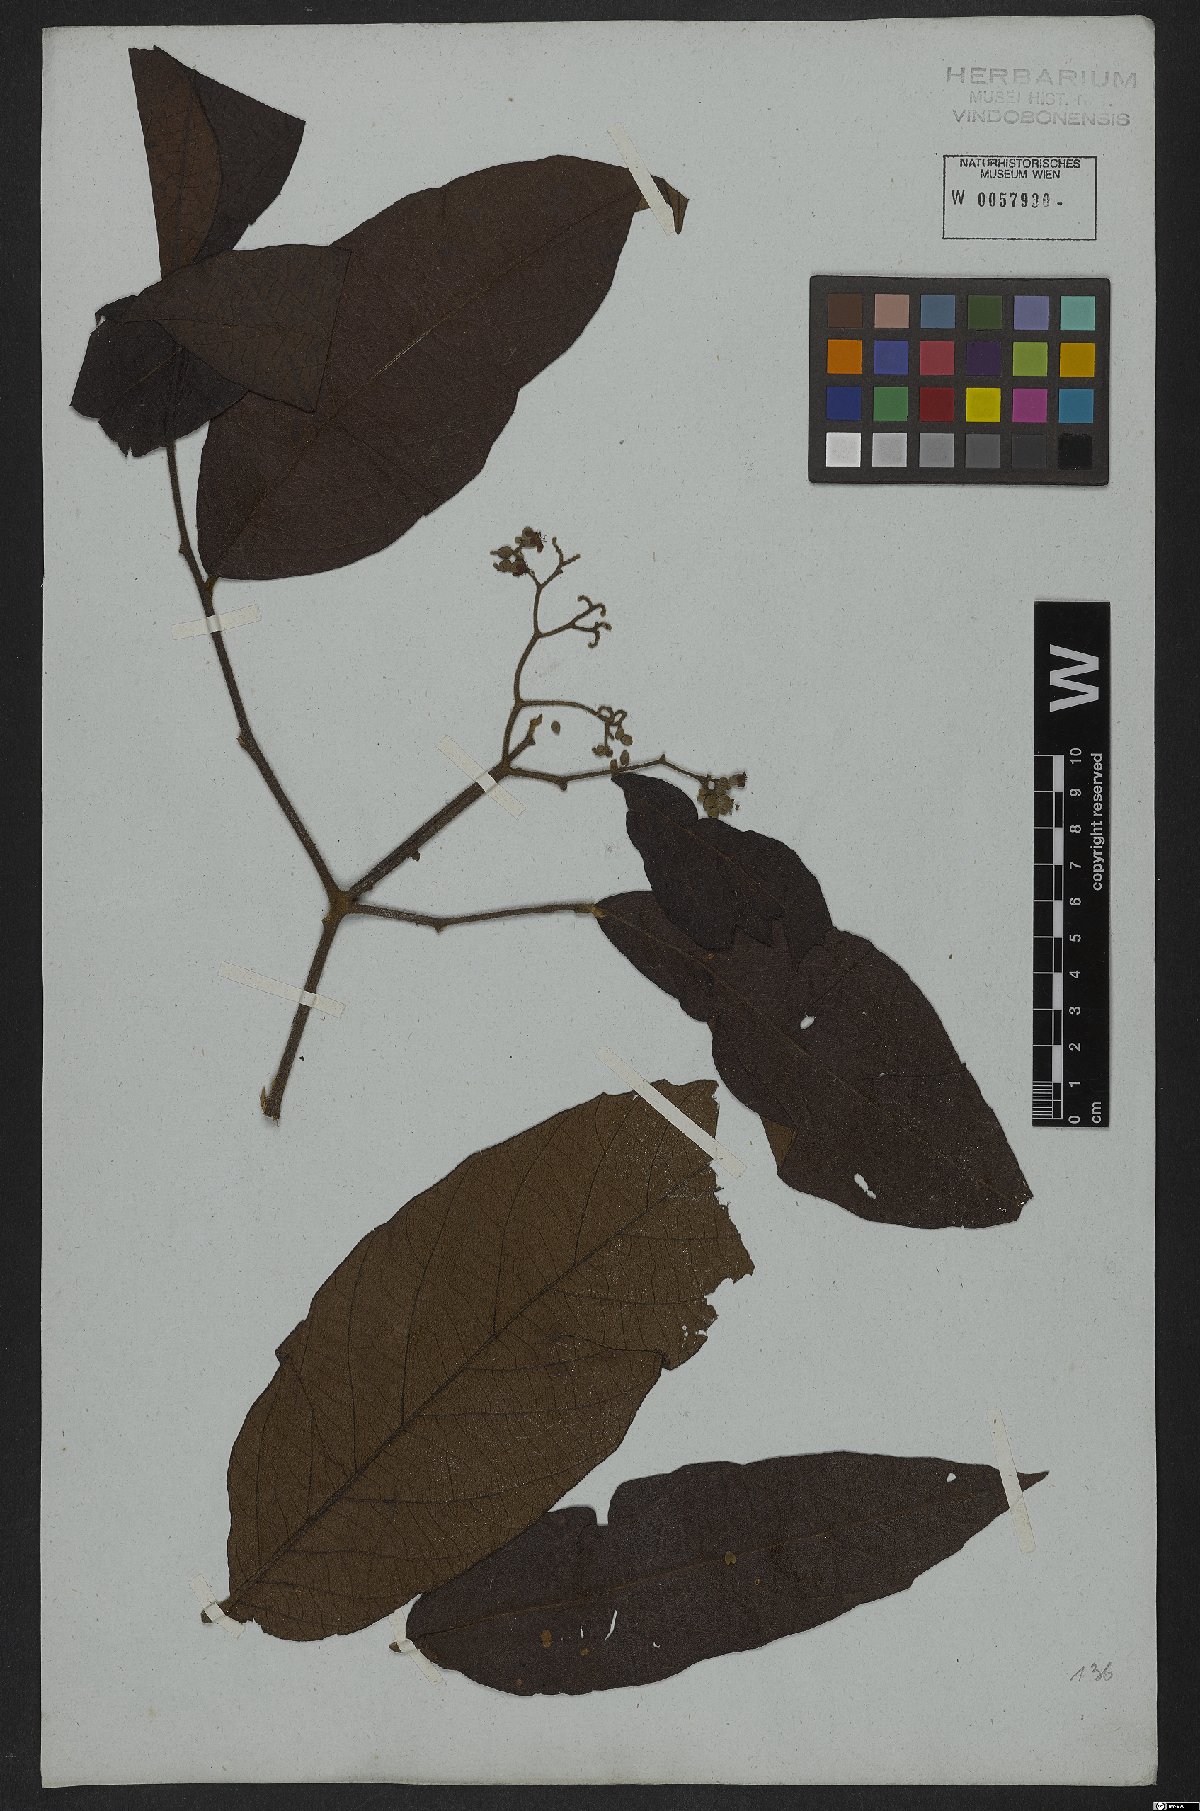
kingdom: Plantae
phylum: Tracheophyta
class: Magnoliopsida
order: Boraginales
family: Cordiaceae
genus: Cordia
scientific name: Cordia
